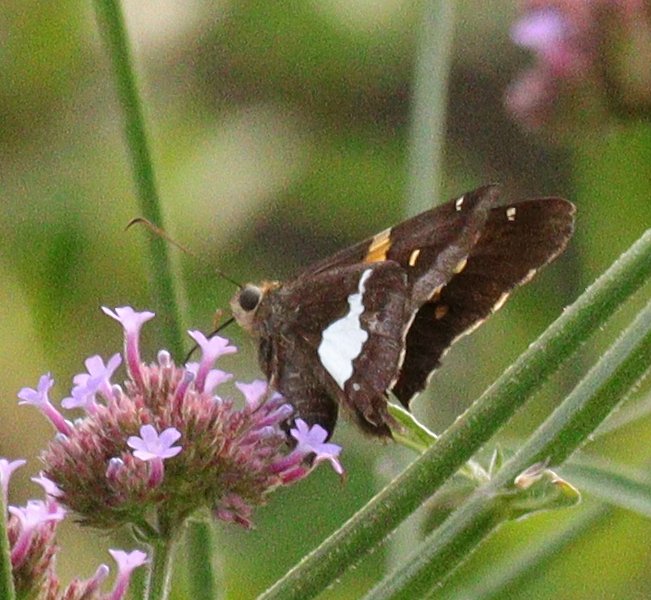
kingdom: Animalia
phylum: Arthropoda
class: Insecta
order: Lepidoptera
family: Hesperiidae
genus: Epargyreus
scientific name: Epargyreus clarus
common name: Silver-spotted Skipper
